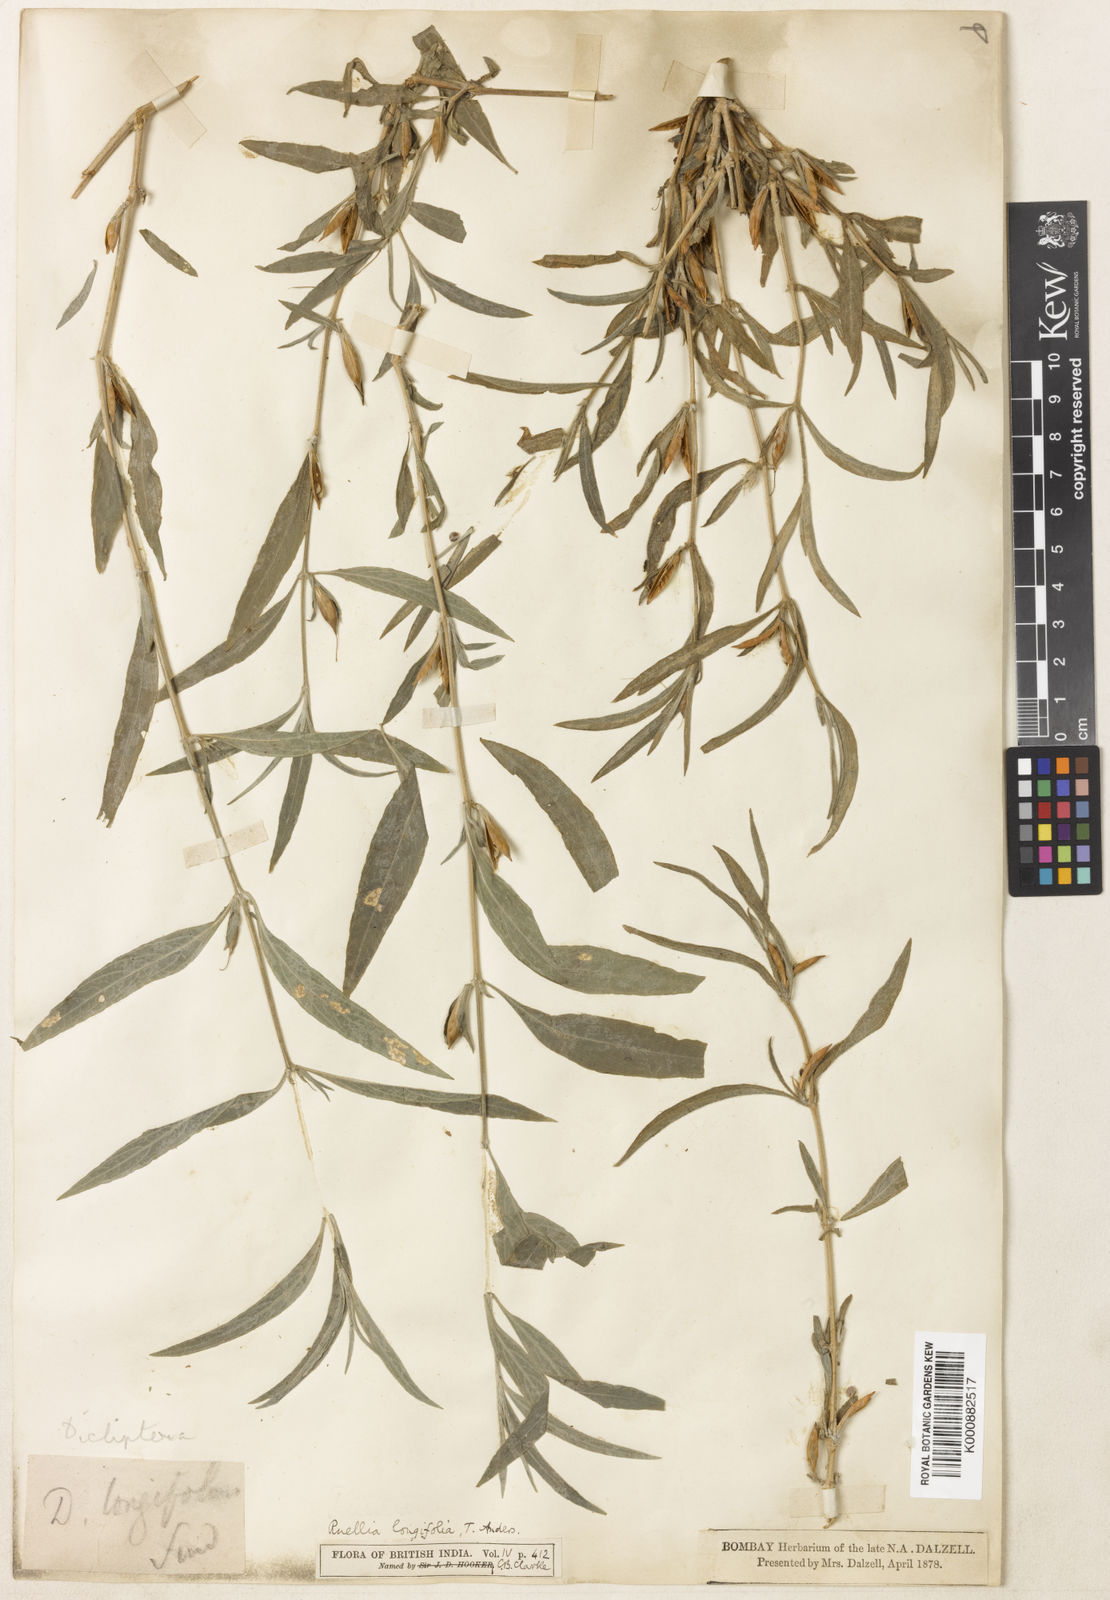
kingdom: Plantae
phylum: Tracheophyta
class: Magnoliopsida
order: Lamiales
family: Acanthaceae
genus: Ruellia
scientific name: Ruellia
